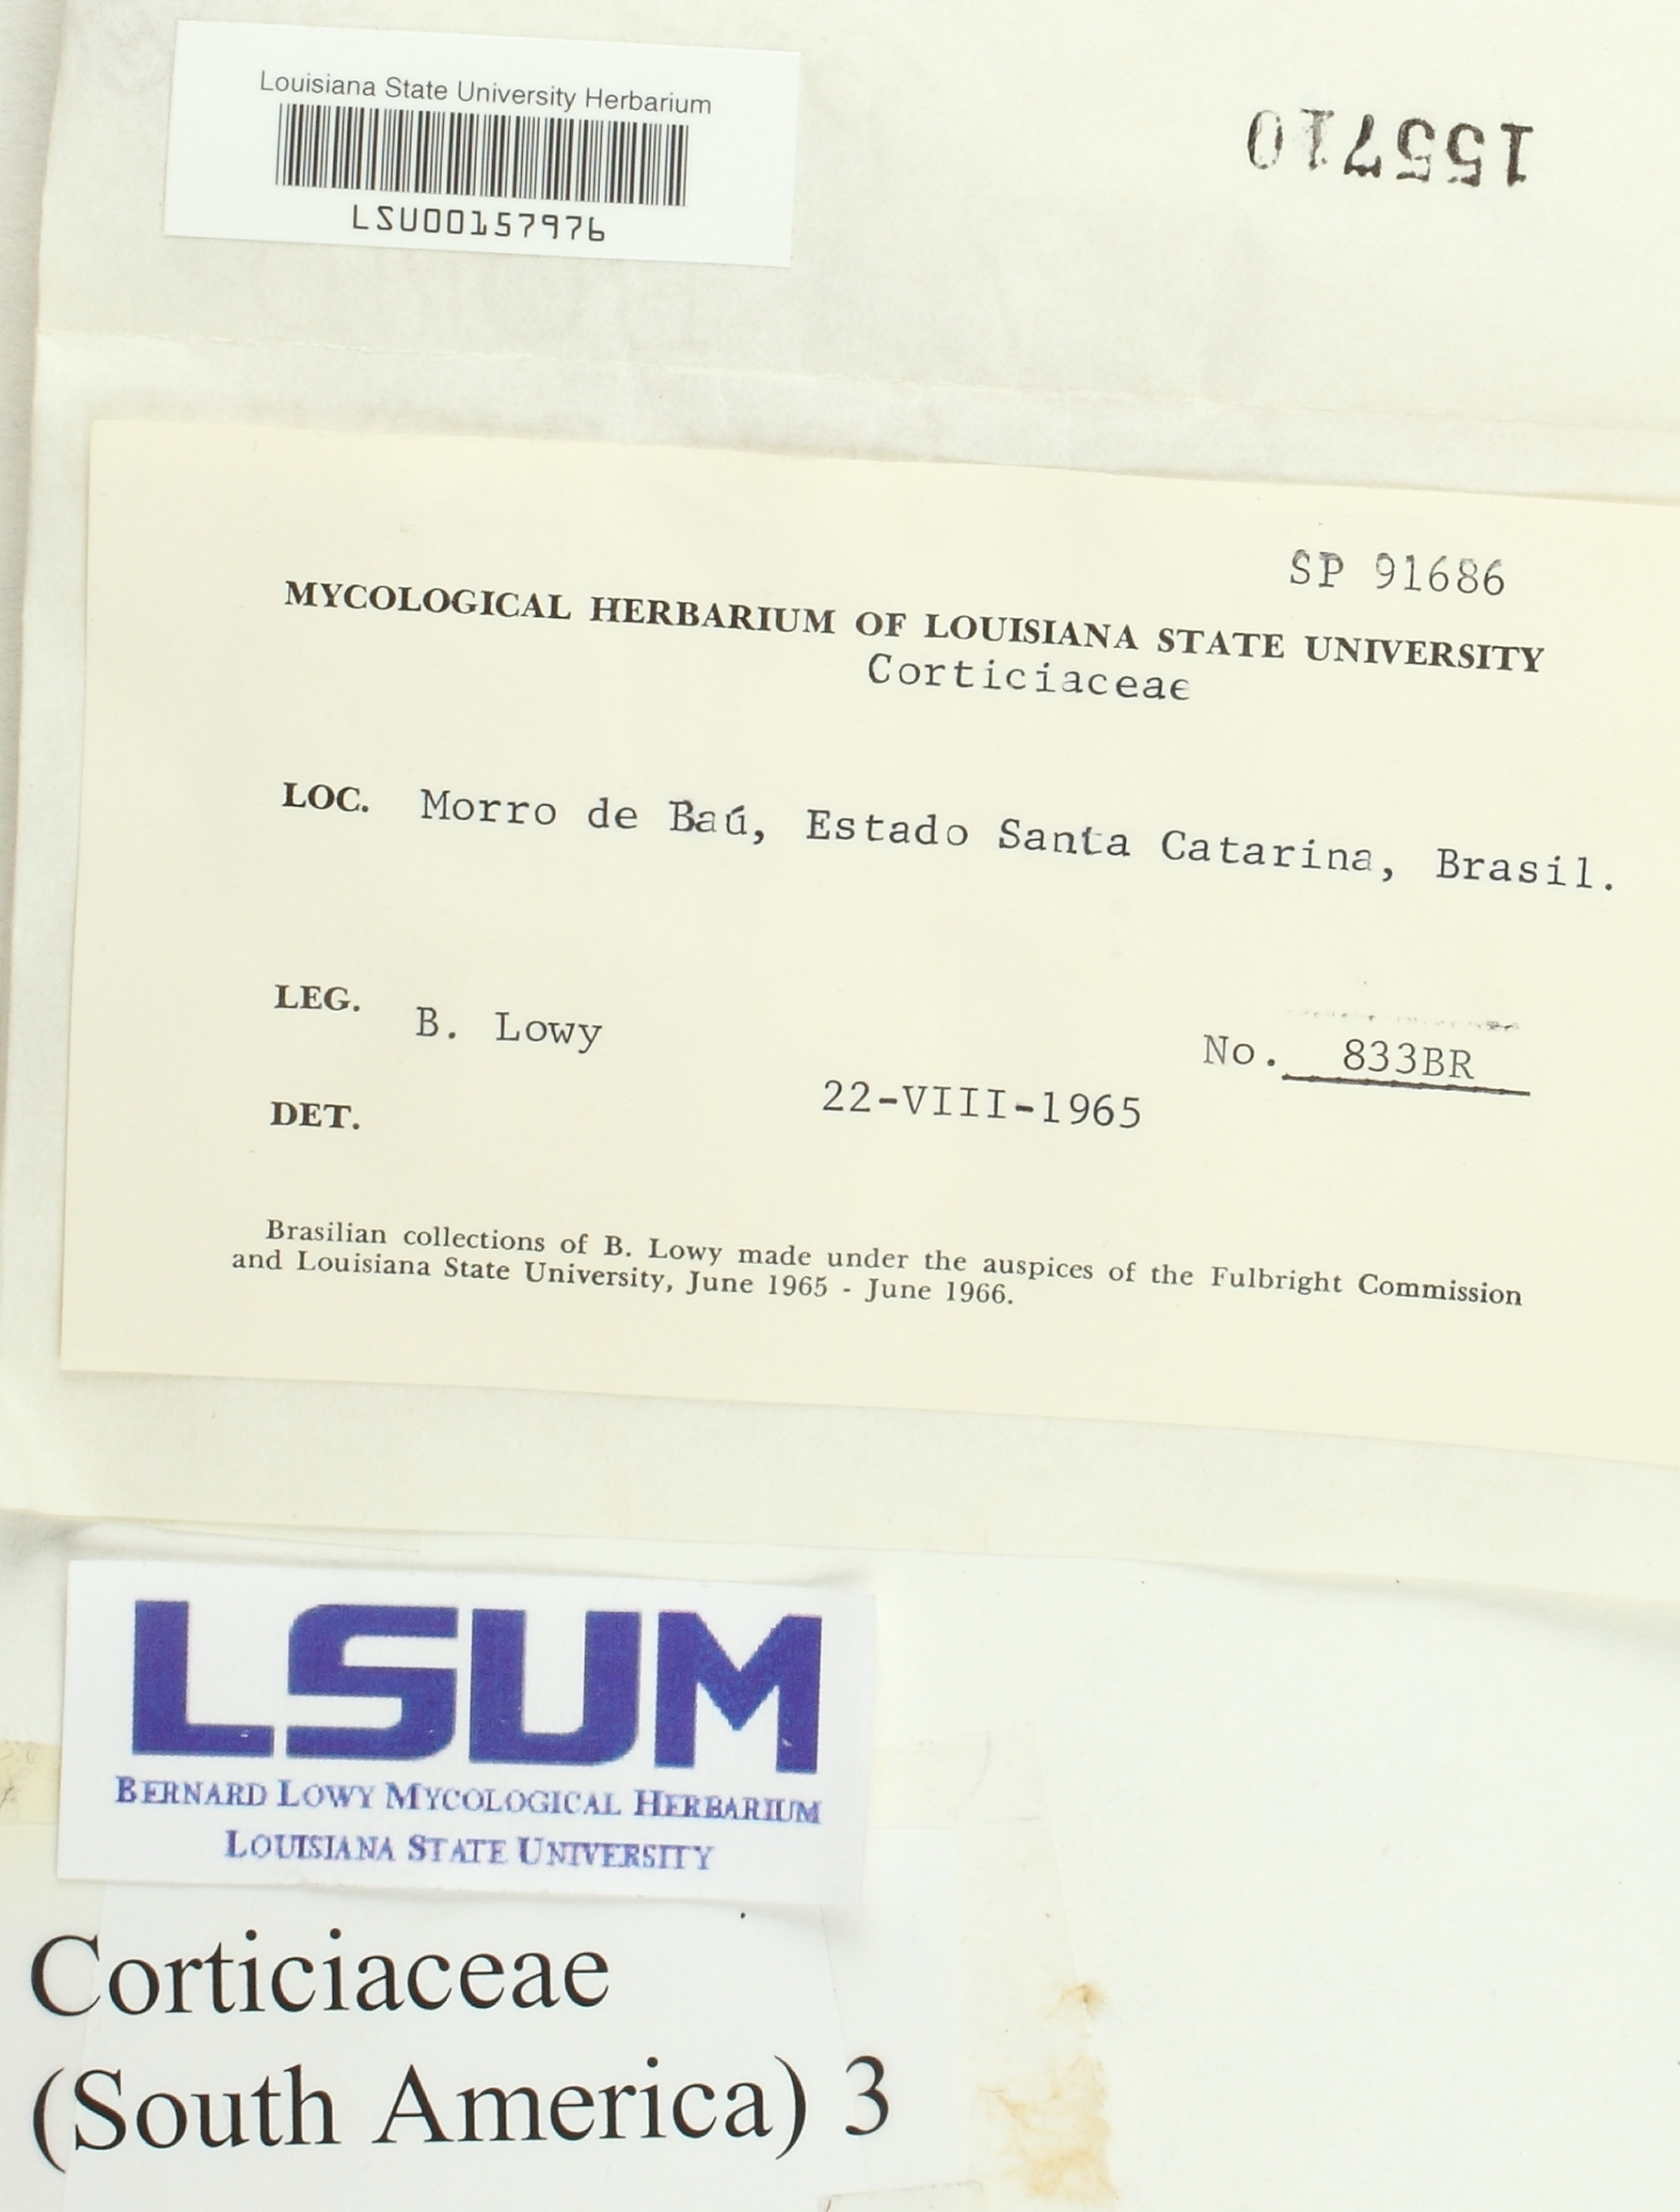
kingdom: Fungi
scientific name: Fungi
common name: Fungi
